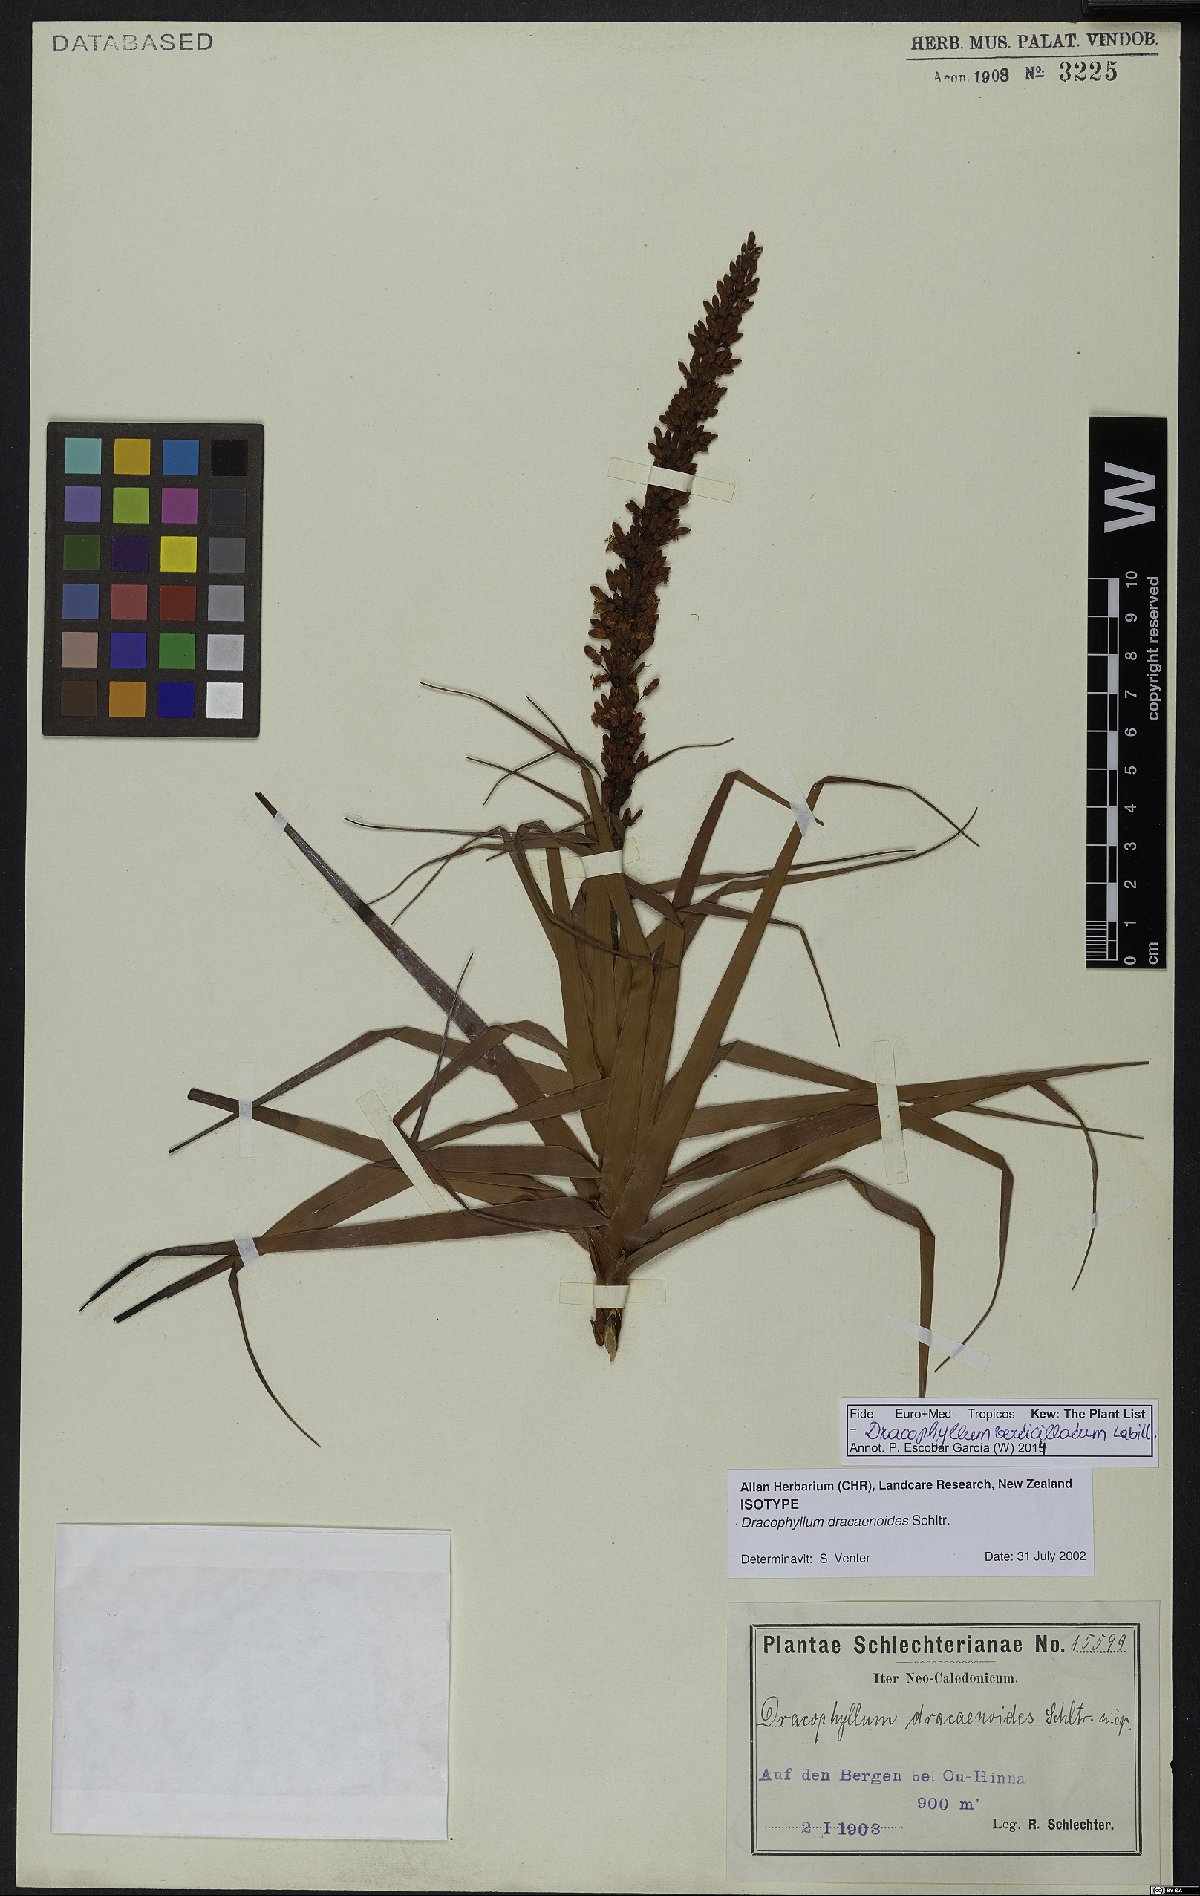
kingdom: Plantae
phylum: Tracheophyta
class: Magnoliopsida
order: Ericales
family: Ericaceae
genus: Dracophyllum
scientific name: Dracophyllum verticillatum
